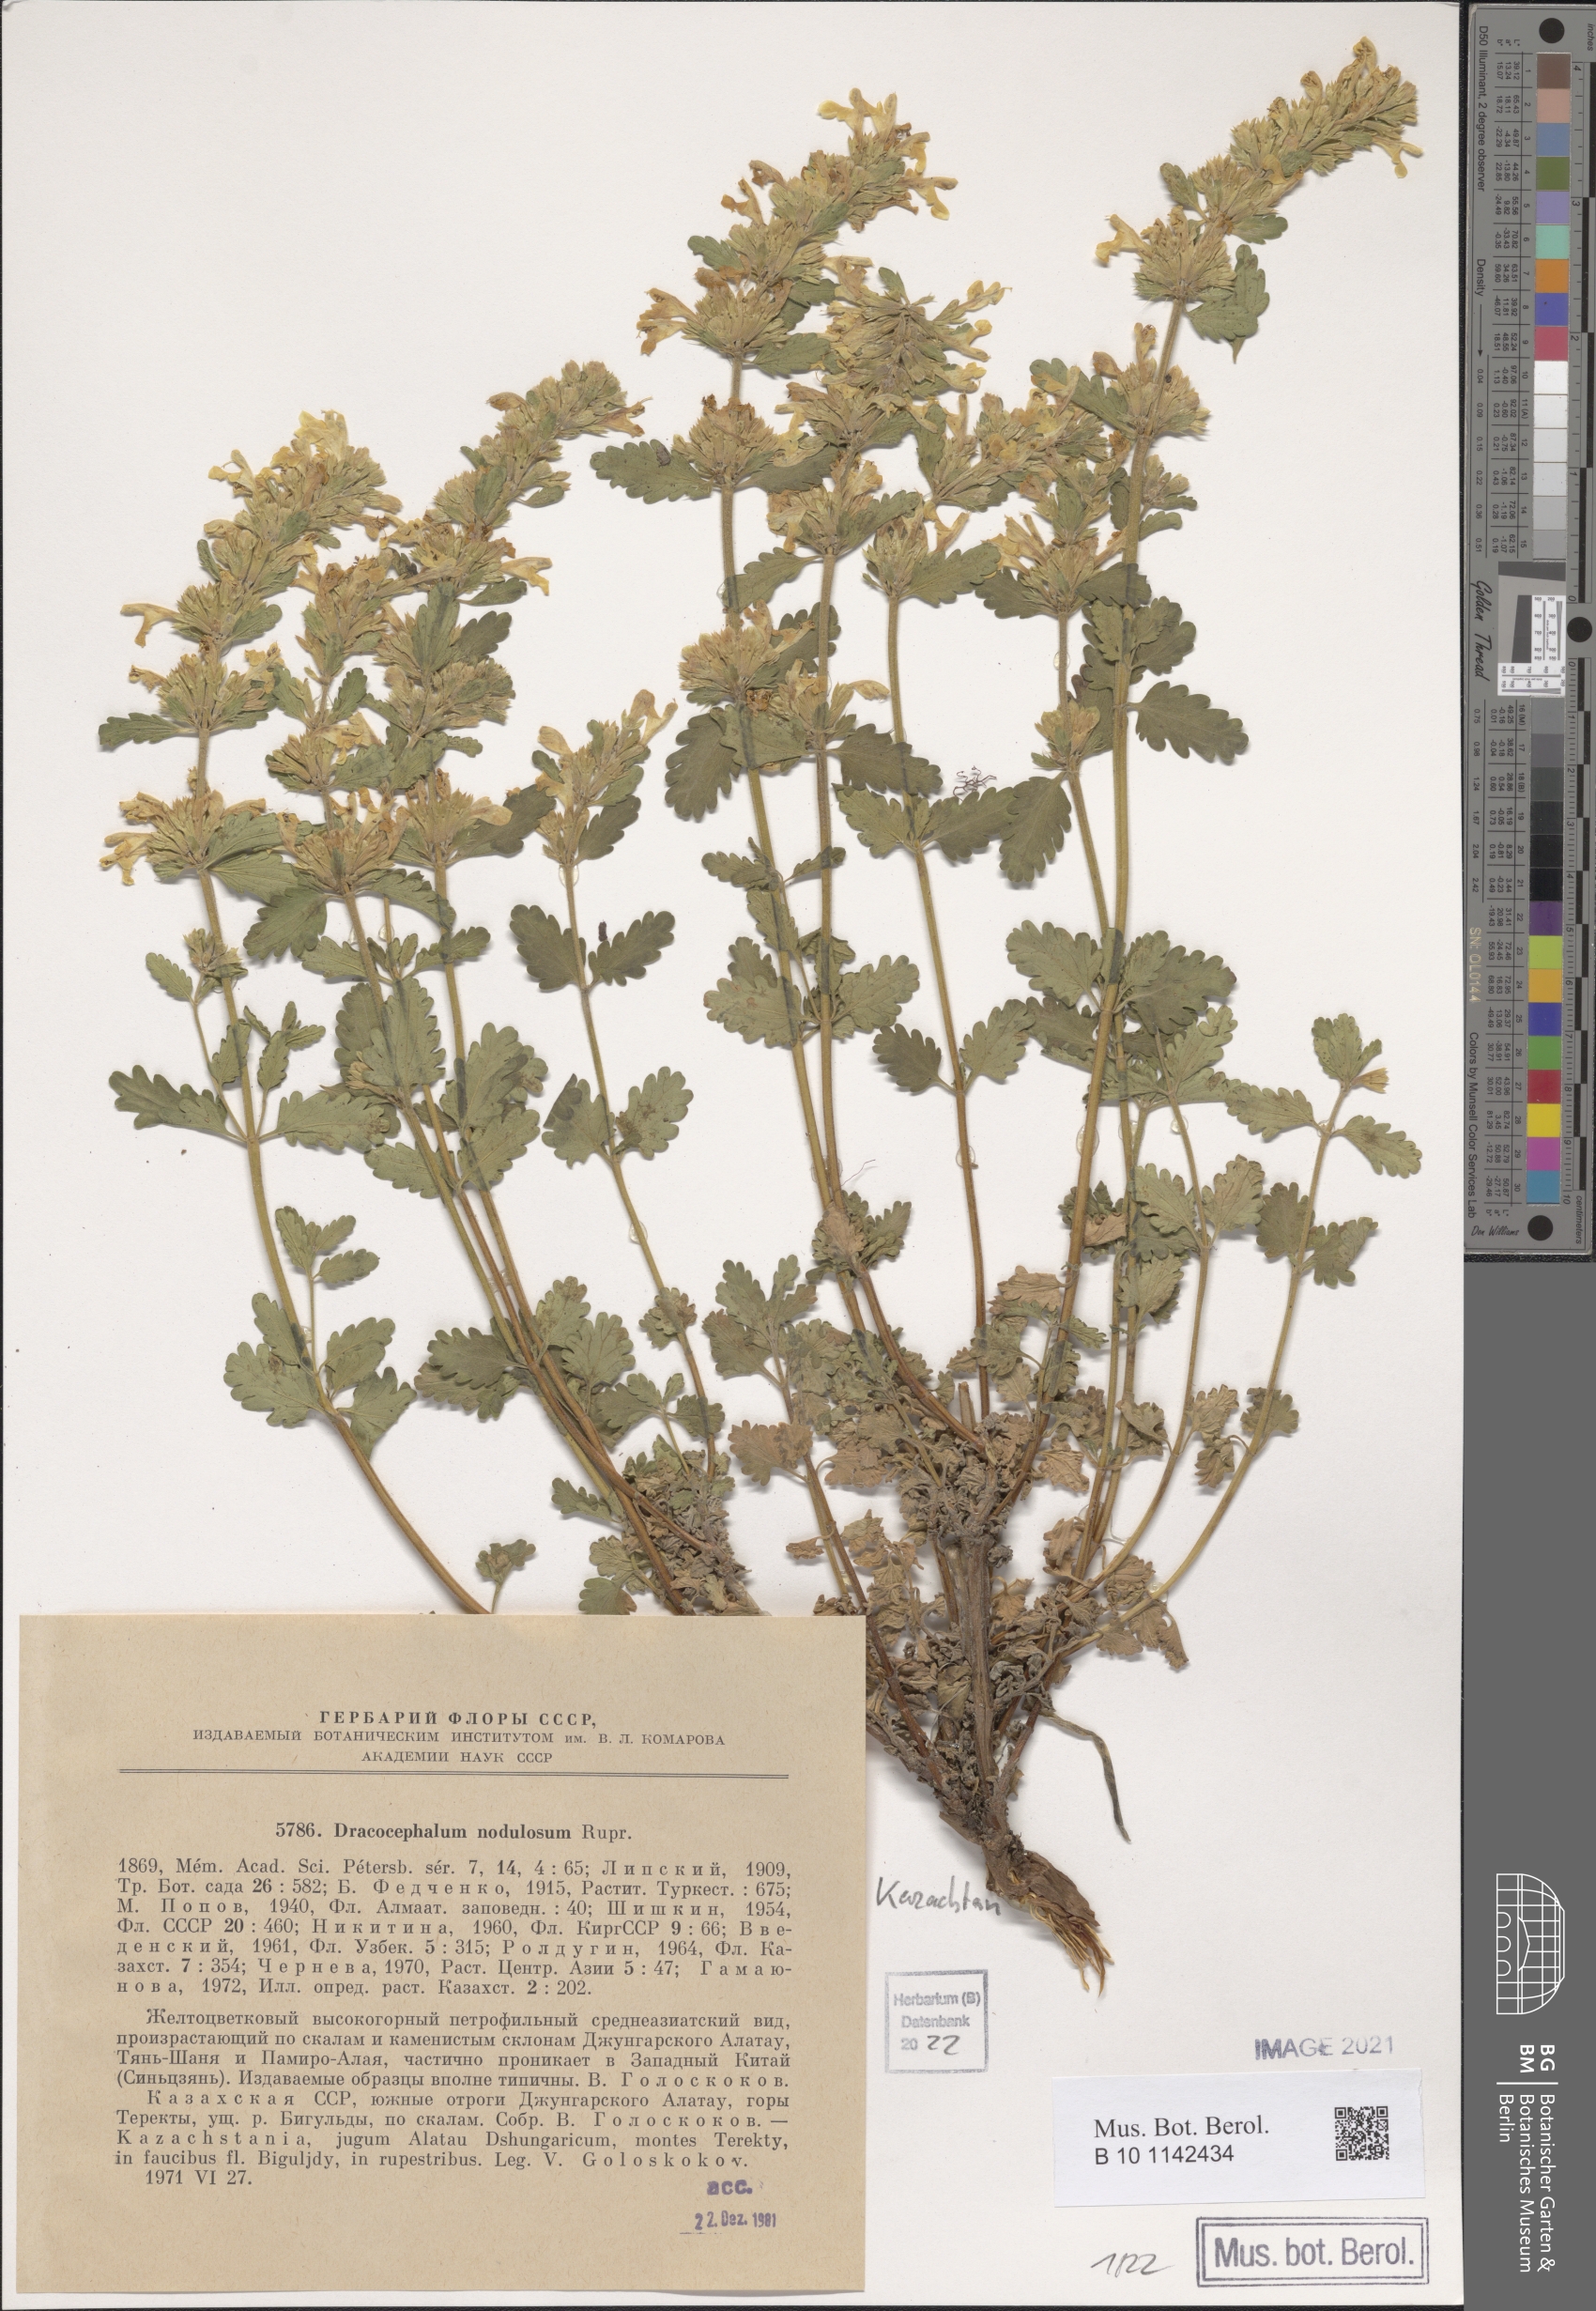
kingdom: Plantae
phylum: Tracheophyta
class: Magnoliopsida
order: Lamiales
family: Lamiaceae
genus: Dracocephalum
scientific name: Dracocephalum nodulosum
